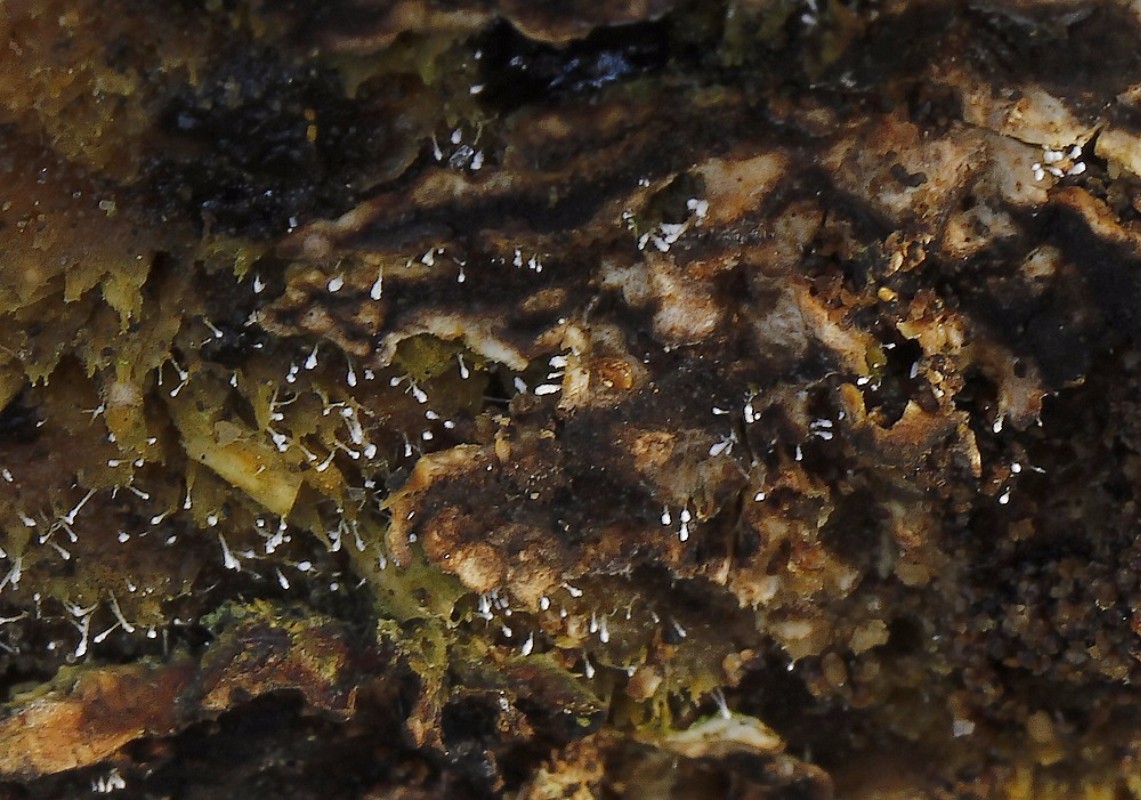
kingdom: Fungi
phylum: Ascomycota
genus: Sphaeridium
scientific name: Sphaeridium
